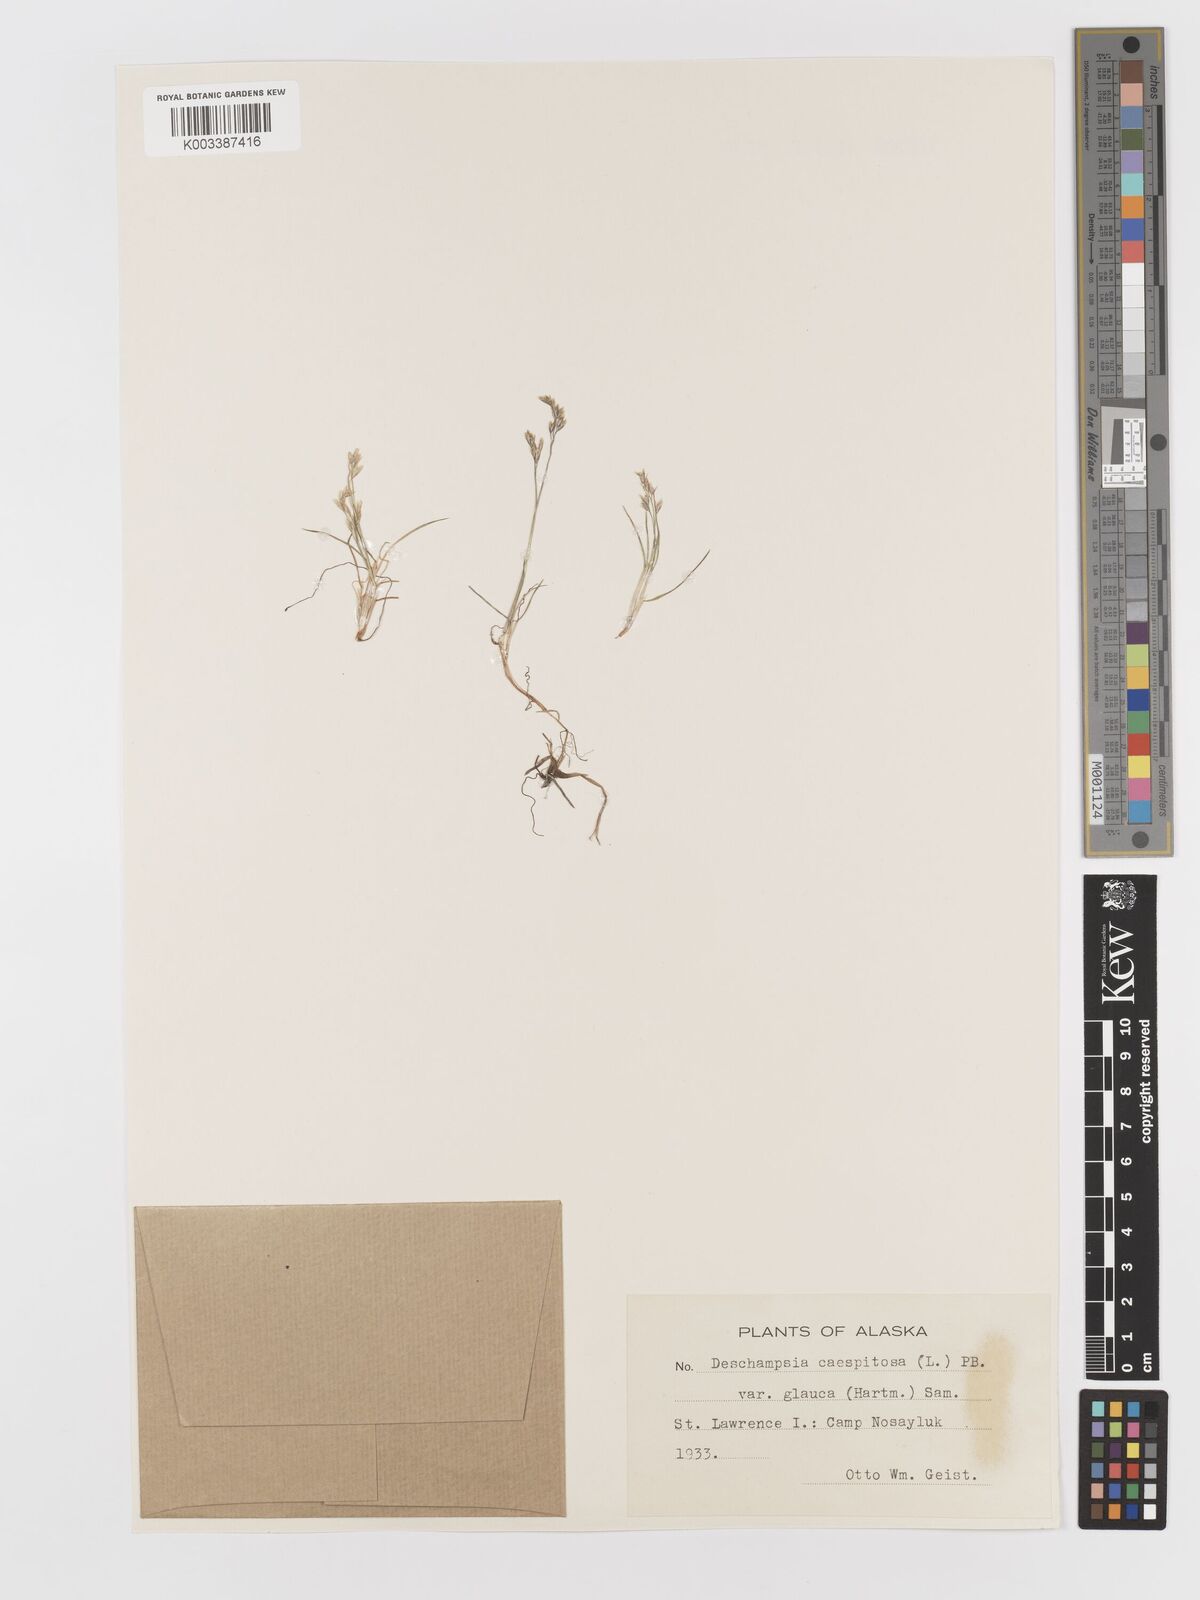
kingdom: Plantae
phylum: Tracheophyta
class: Liliopsida
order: Poales
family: Poaceae
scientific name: Poaceae
